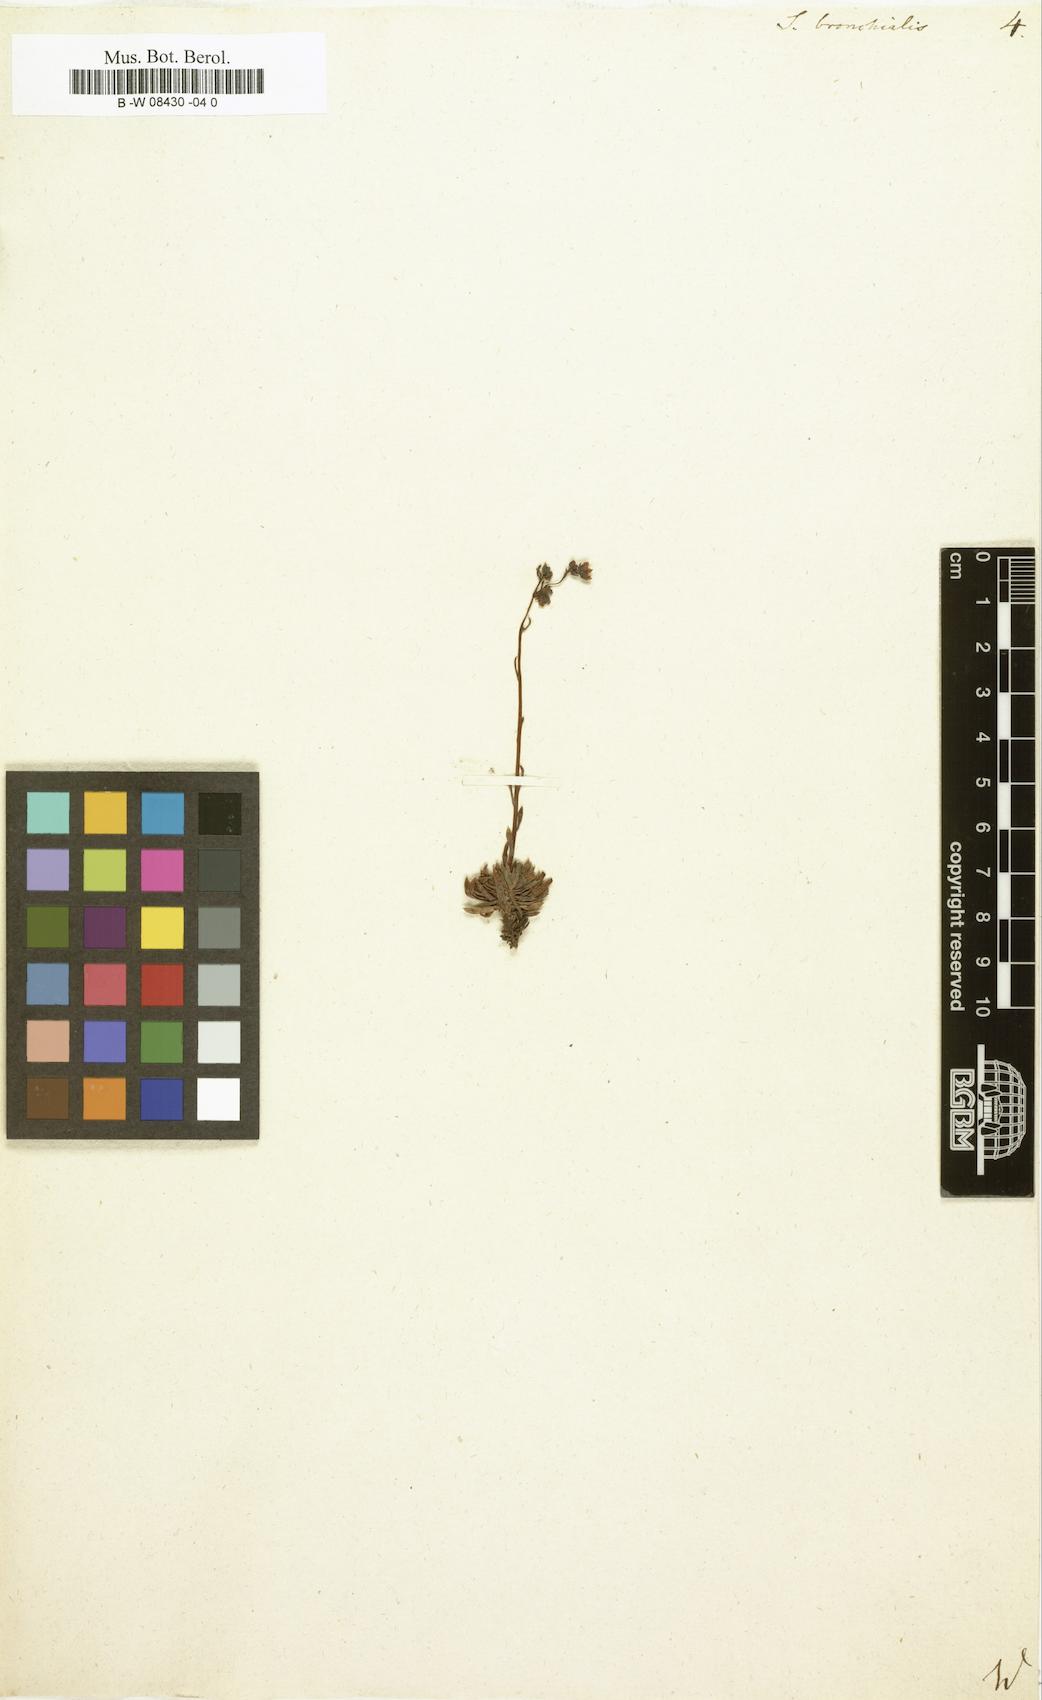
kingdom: Plantae
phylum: Tracheophyta
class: Magnoliopsida
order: Saxifragales
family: Saxifragaceae
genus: Saxifraga
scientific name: Saxifraga bronchialis
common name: Matted saxifrage
